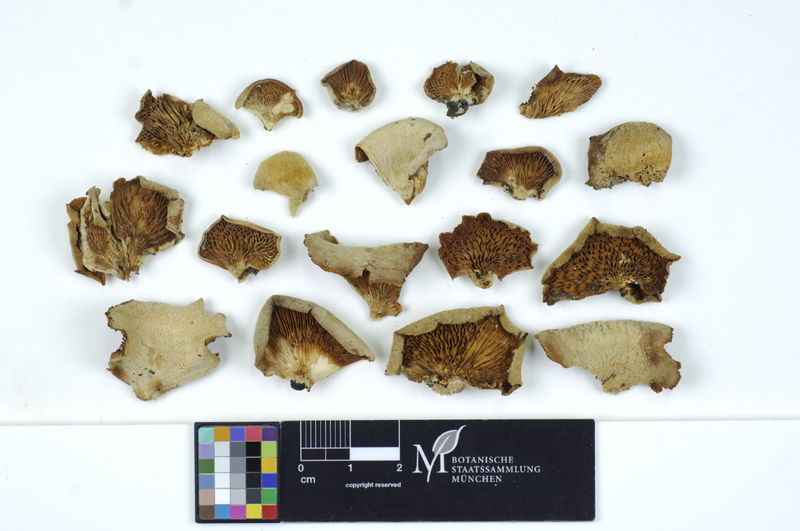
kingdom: Plantae
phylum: Tracheophyta
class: Magnoliopsida
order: Fagales
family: Fagaceae
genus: Quercus
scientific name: Quercus
